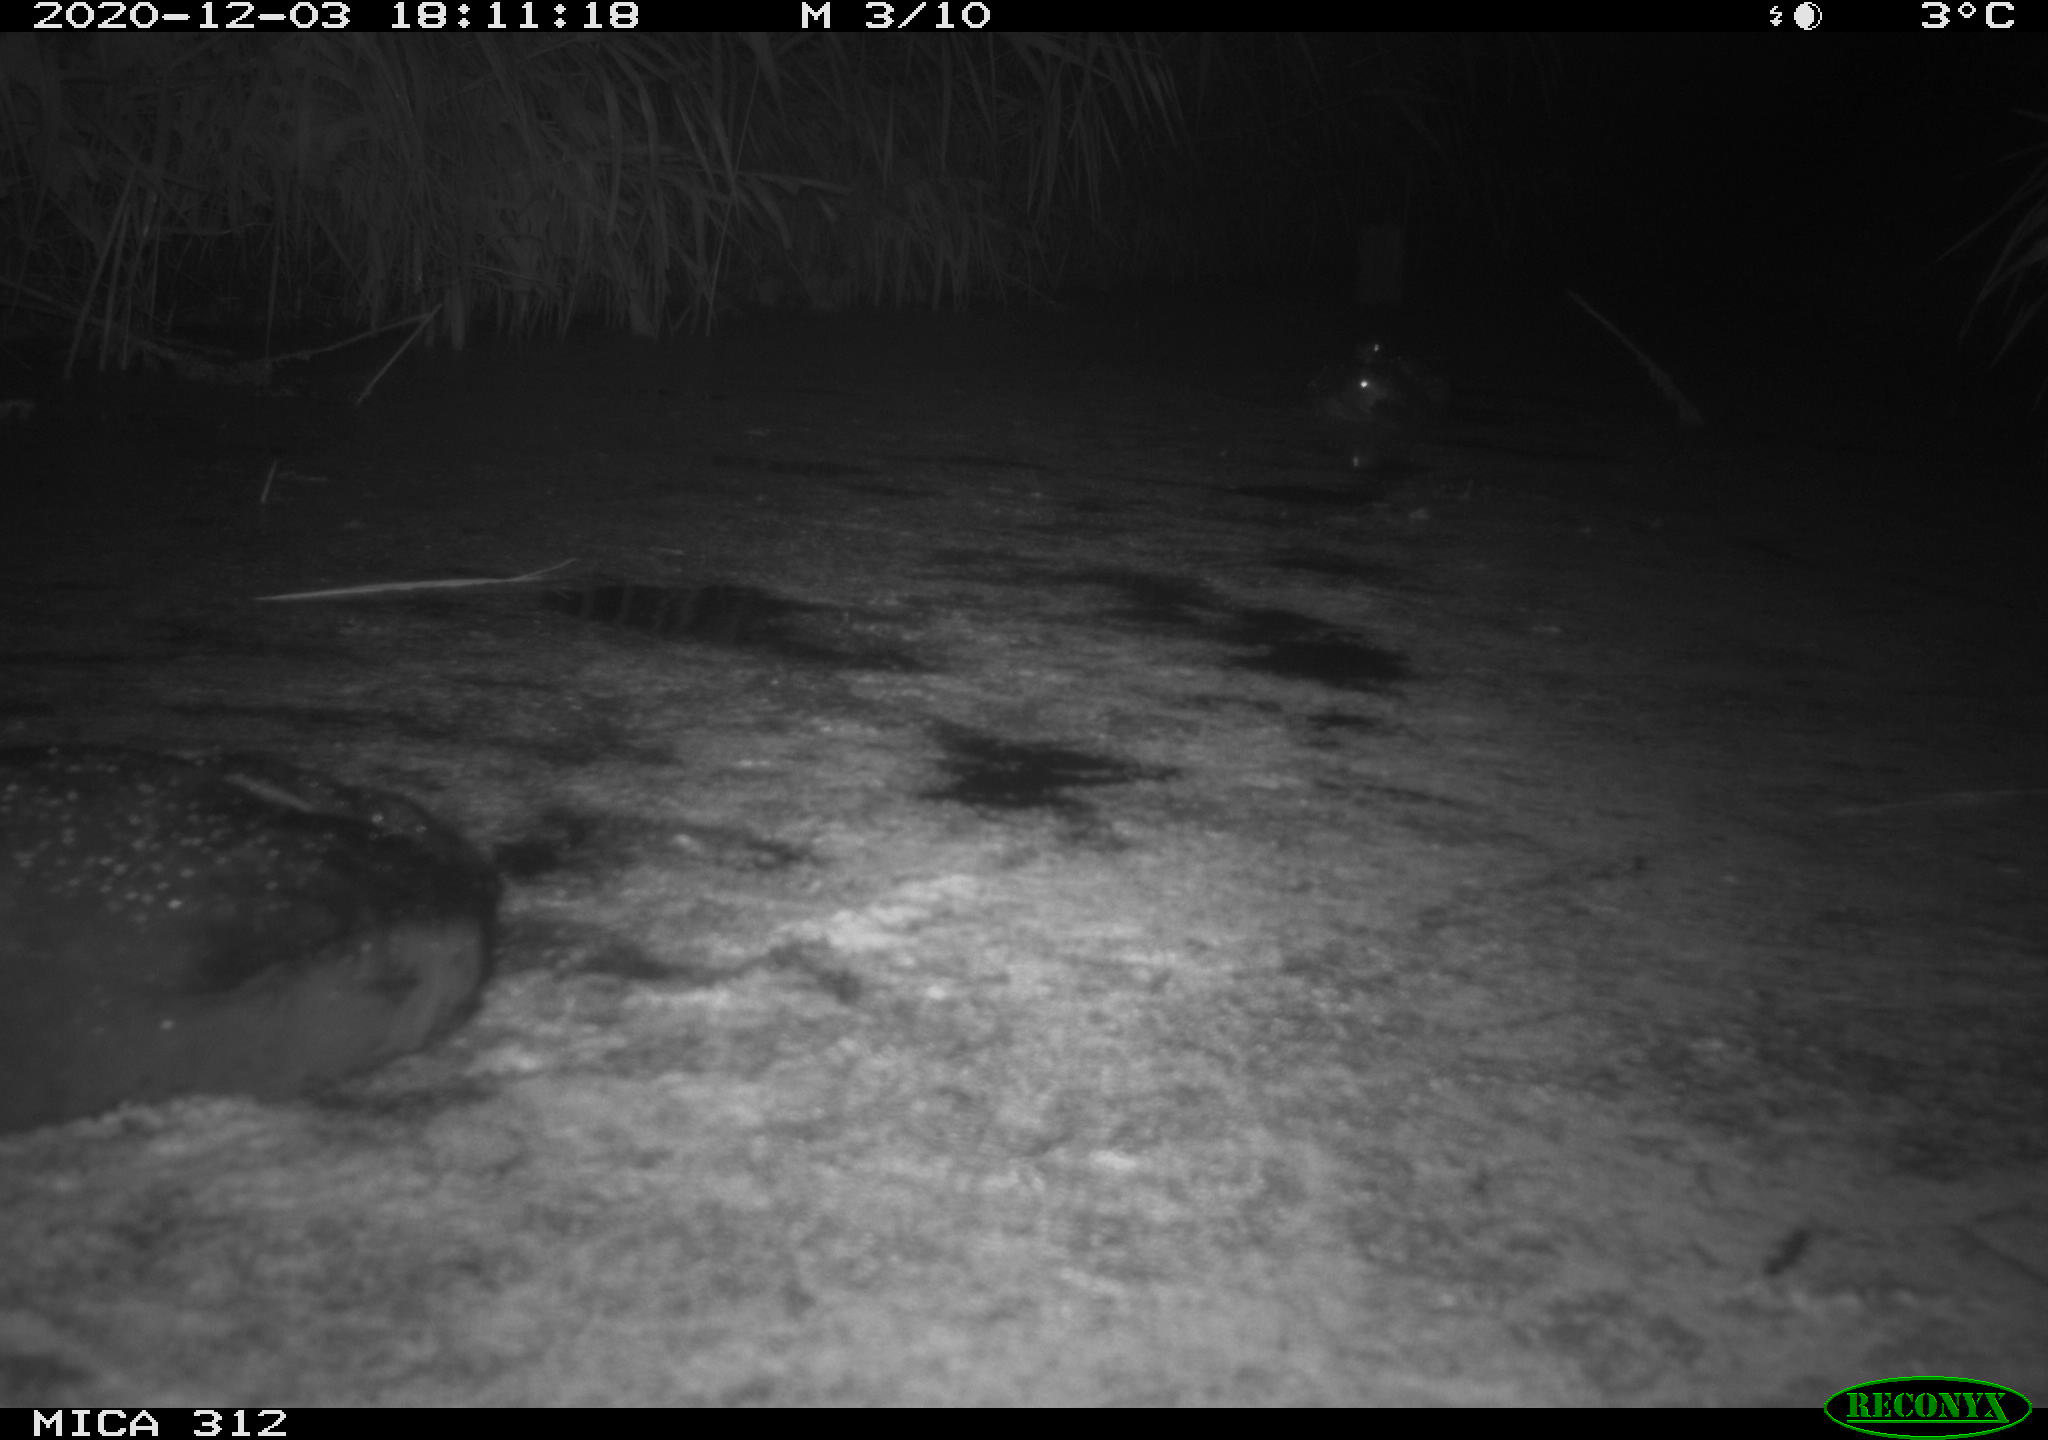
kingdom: Animalia
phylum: Chordata
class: Aves
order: Anseriformes
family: Anatidae
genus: Anas
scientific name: Anas
